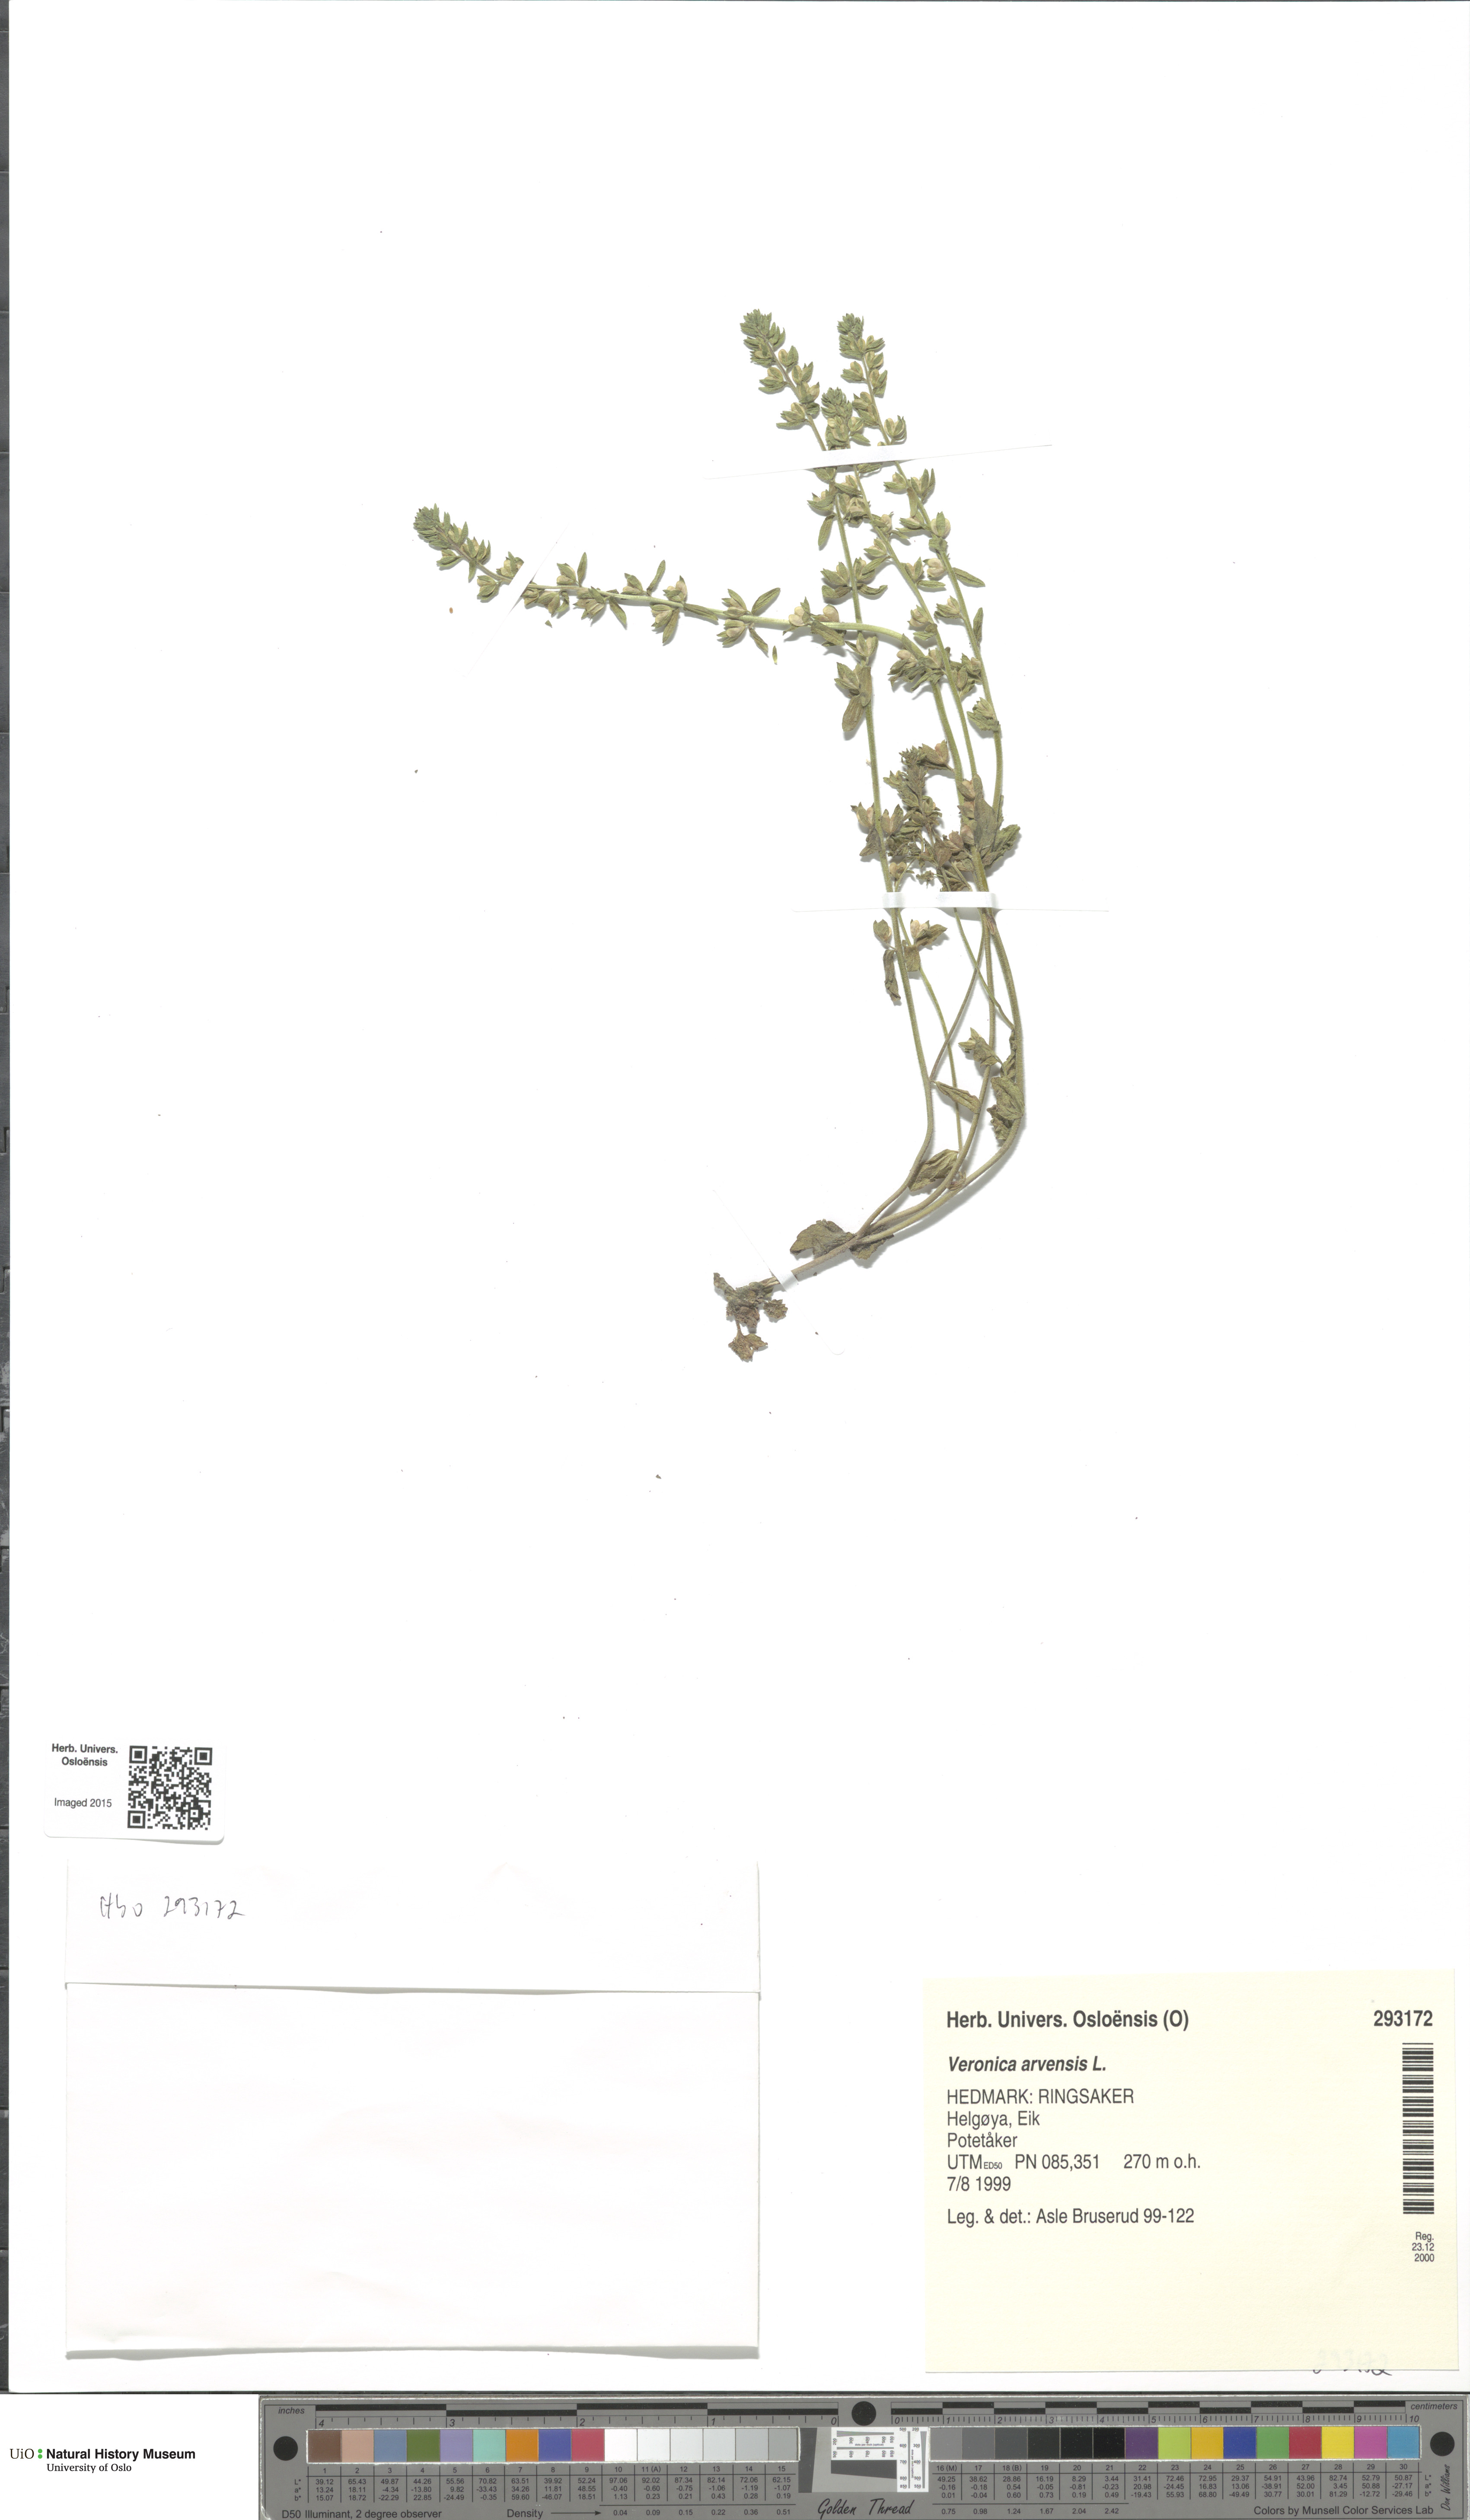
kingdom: Plantae
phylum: Tracheophyta
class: Magnoliopsida
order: Lamiales
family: Plantaginaceae
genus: Veronica
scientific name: Veronica arvensis
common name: Corn speedwell
